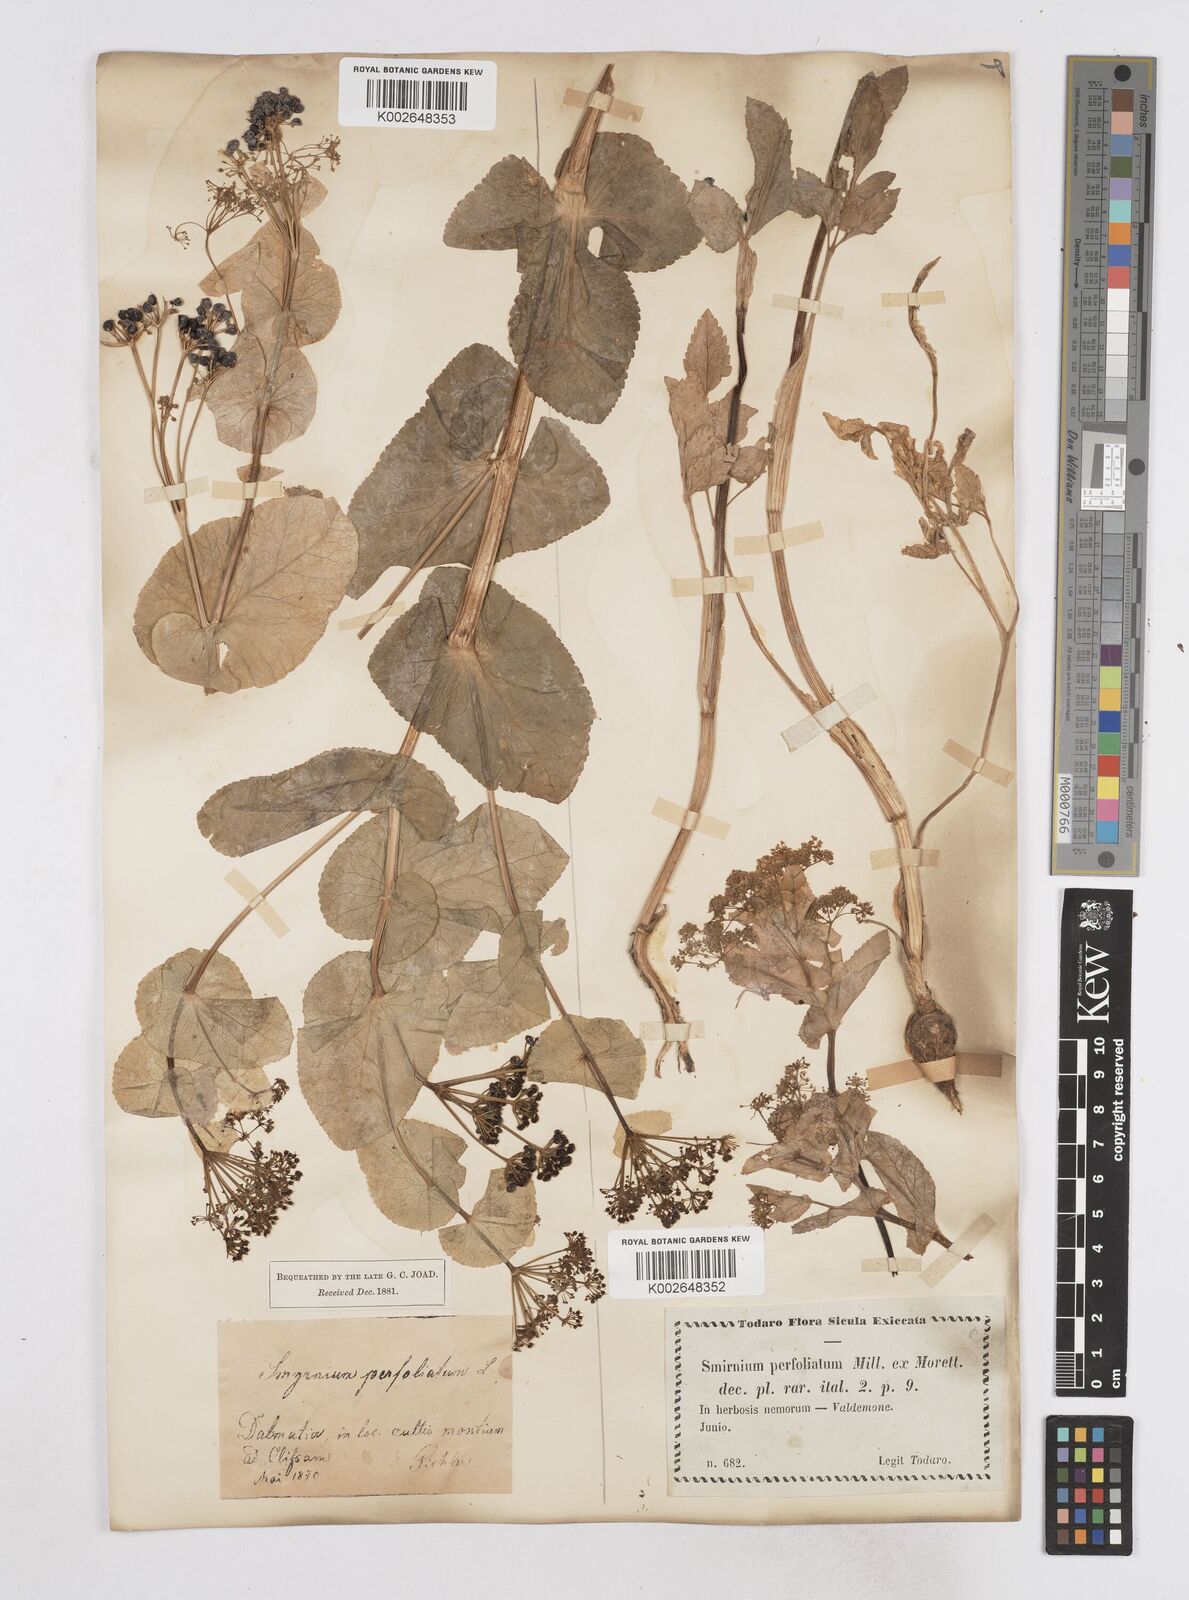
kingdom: Plantae
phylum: Tracheophyta
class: Magnoliopsida
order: Apiales
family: Apiaceae
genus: Smyrnium
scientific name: Smyrnium perfoliatum
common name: Perfoliate alexanders
